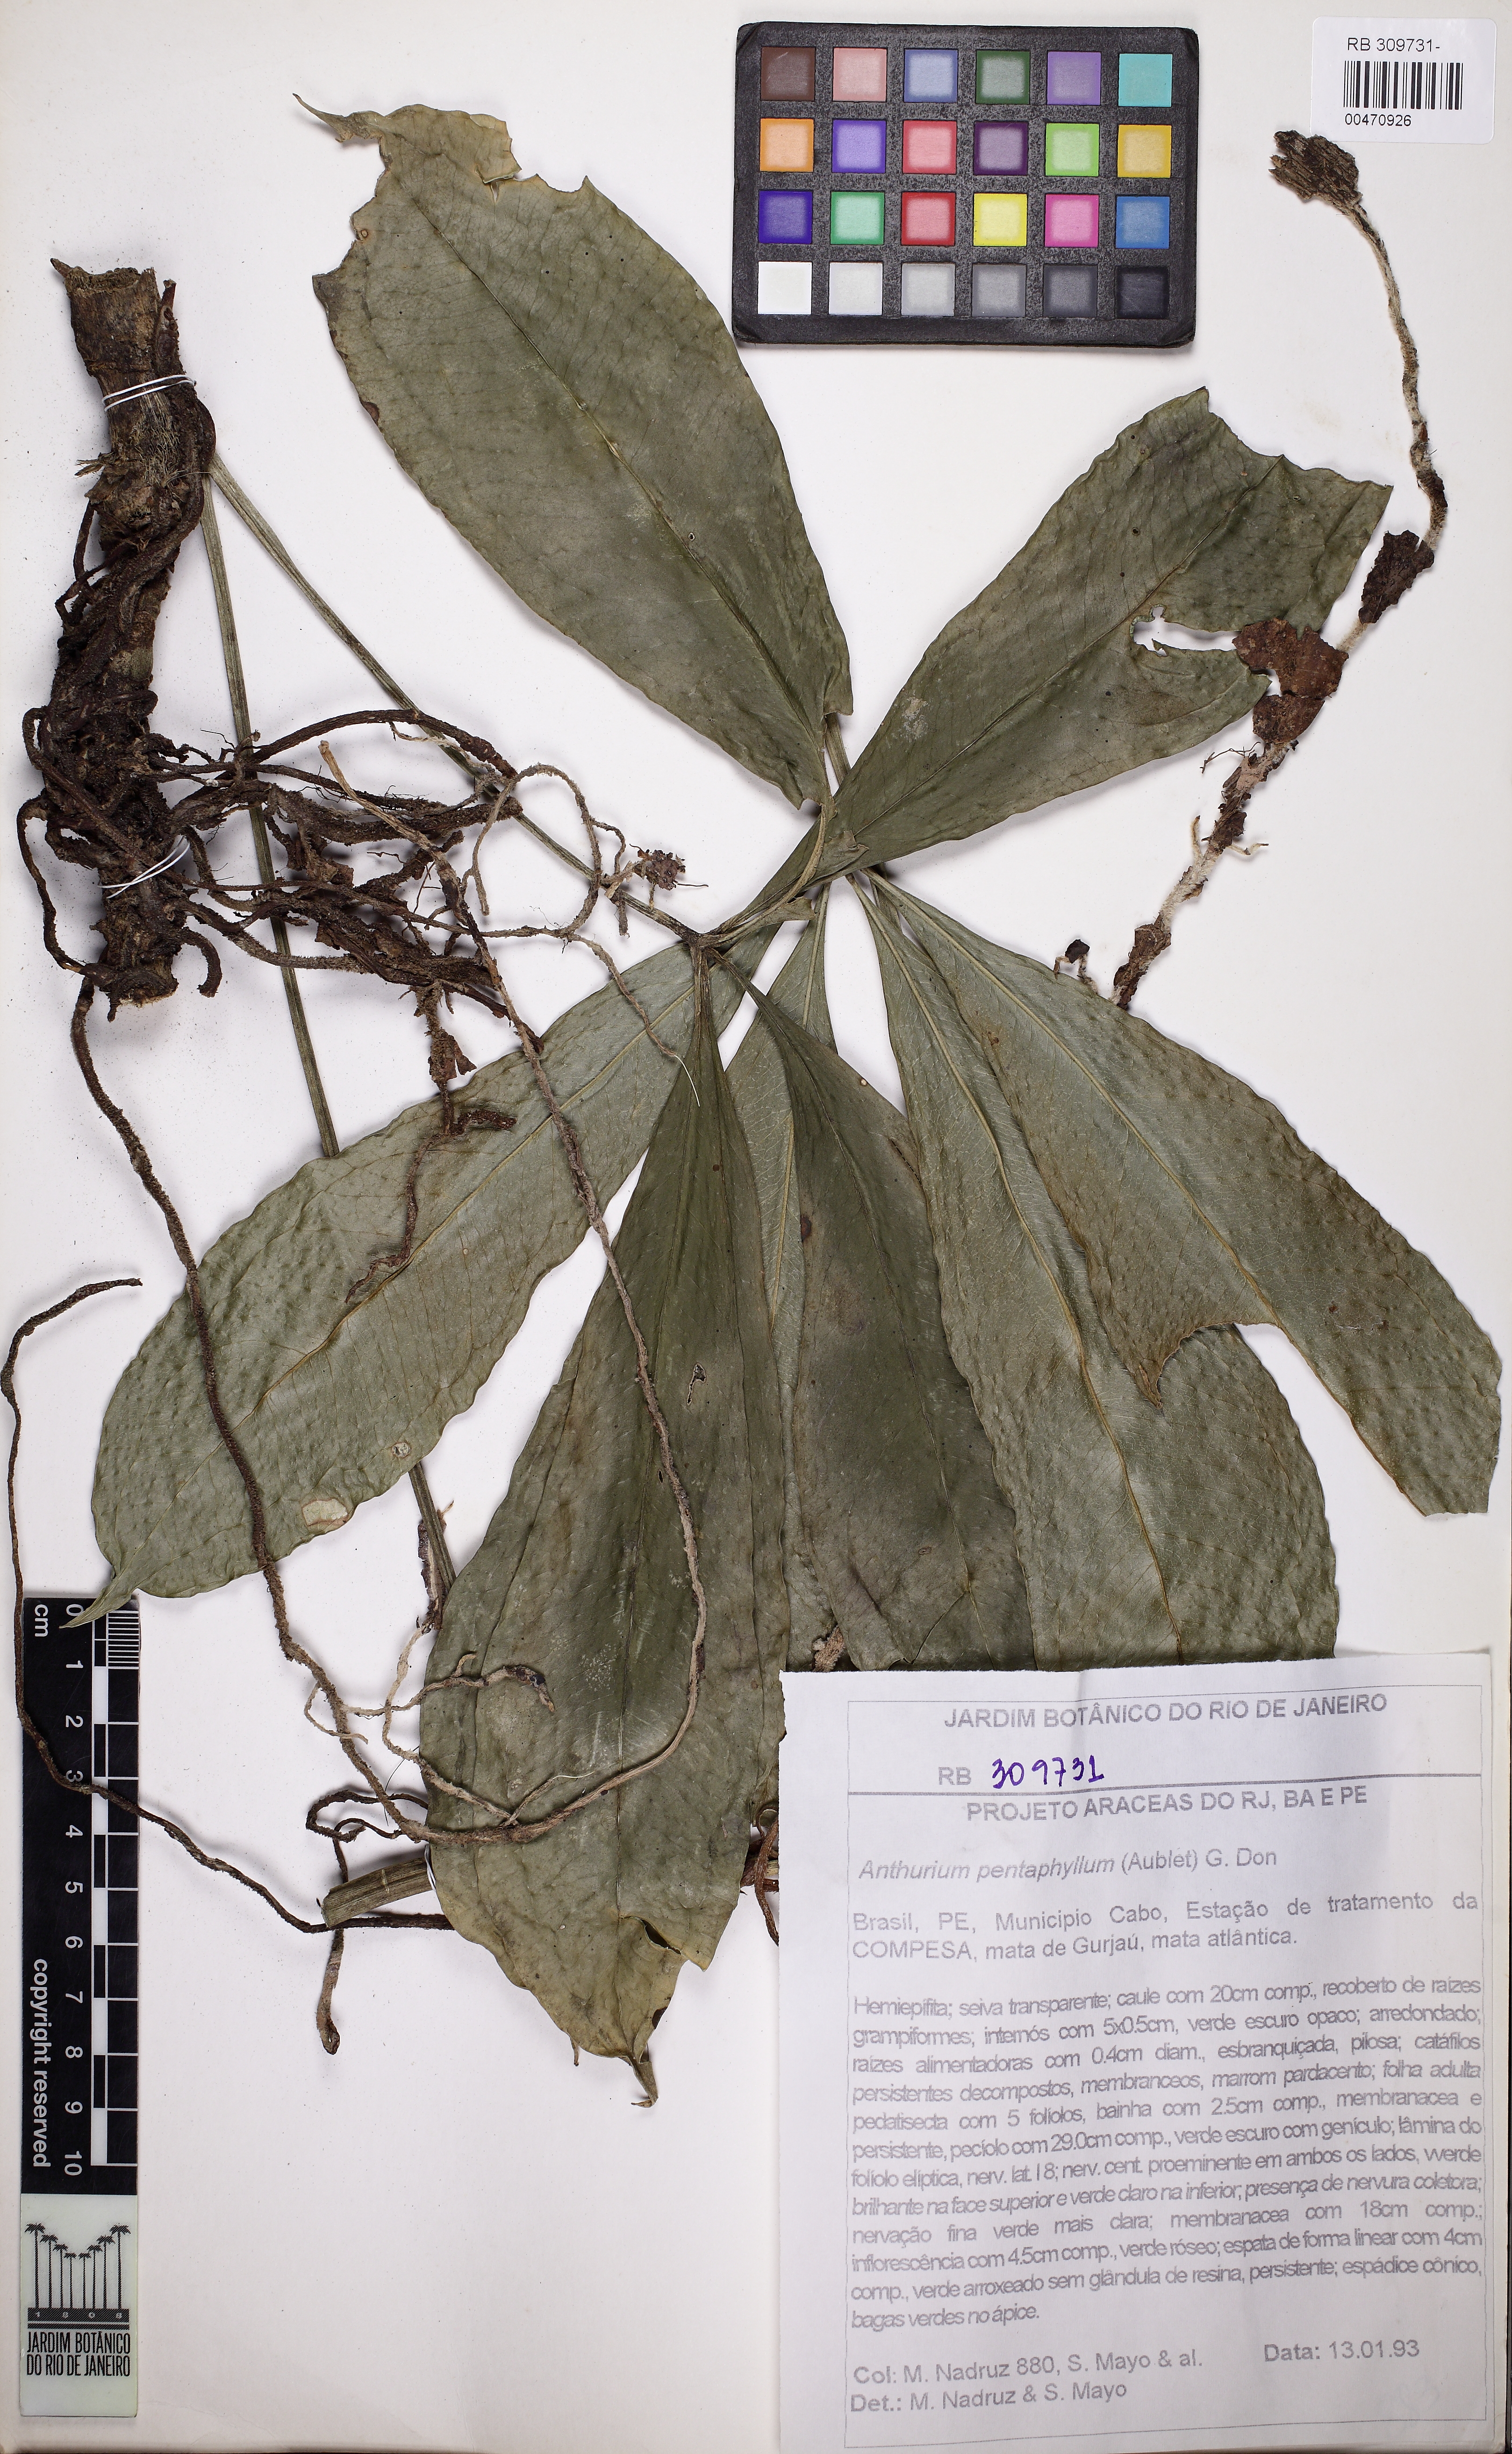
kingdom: Plantae
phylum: Tracheophyta
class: Liliopsida
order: Alismatales
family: Araceae
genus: Anthurium
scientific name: Anthurium pentaphyllum
